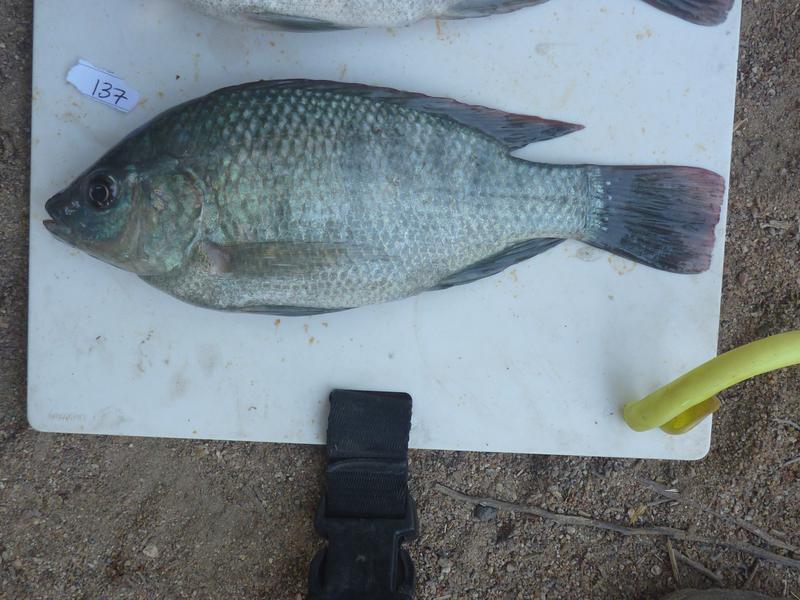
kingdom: Animalia
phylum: Chordata
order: Perciformes
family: Cichlidae
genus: Oreochromis
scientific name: Oreochromis
